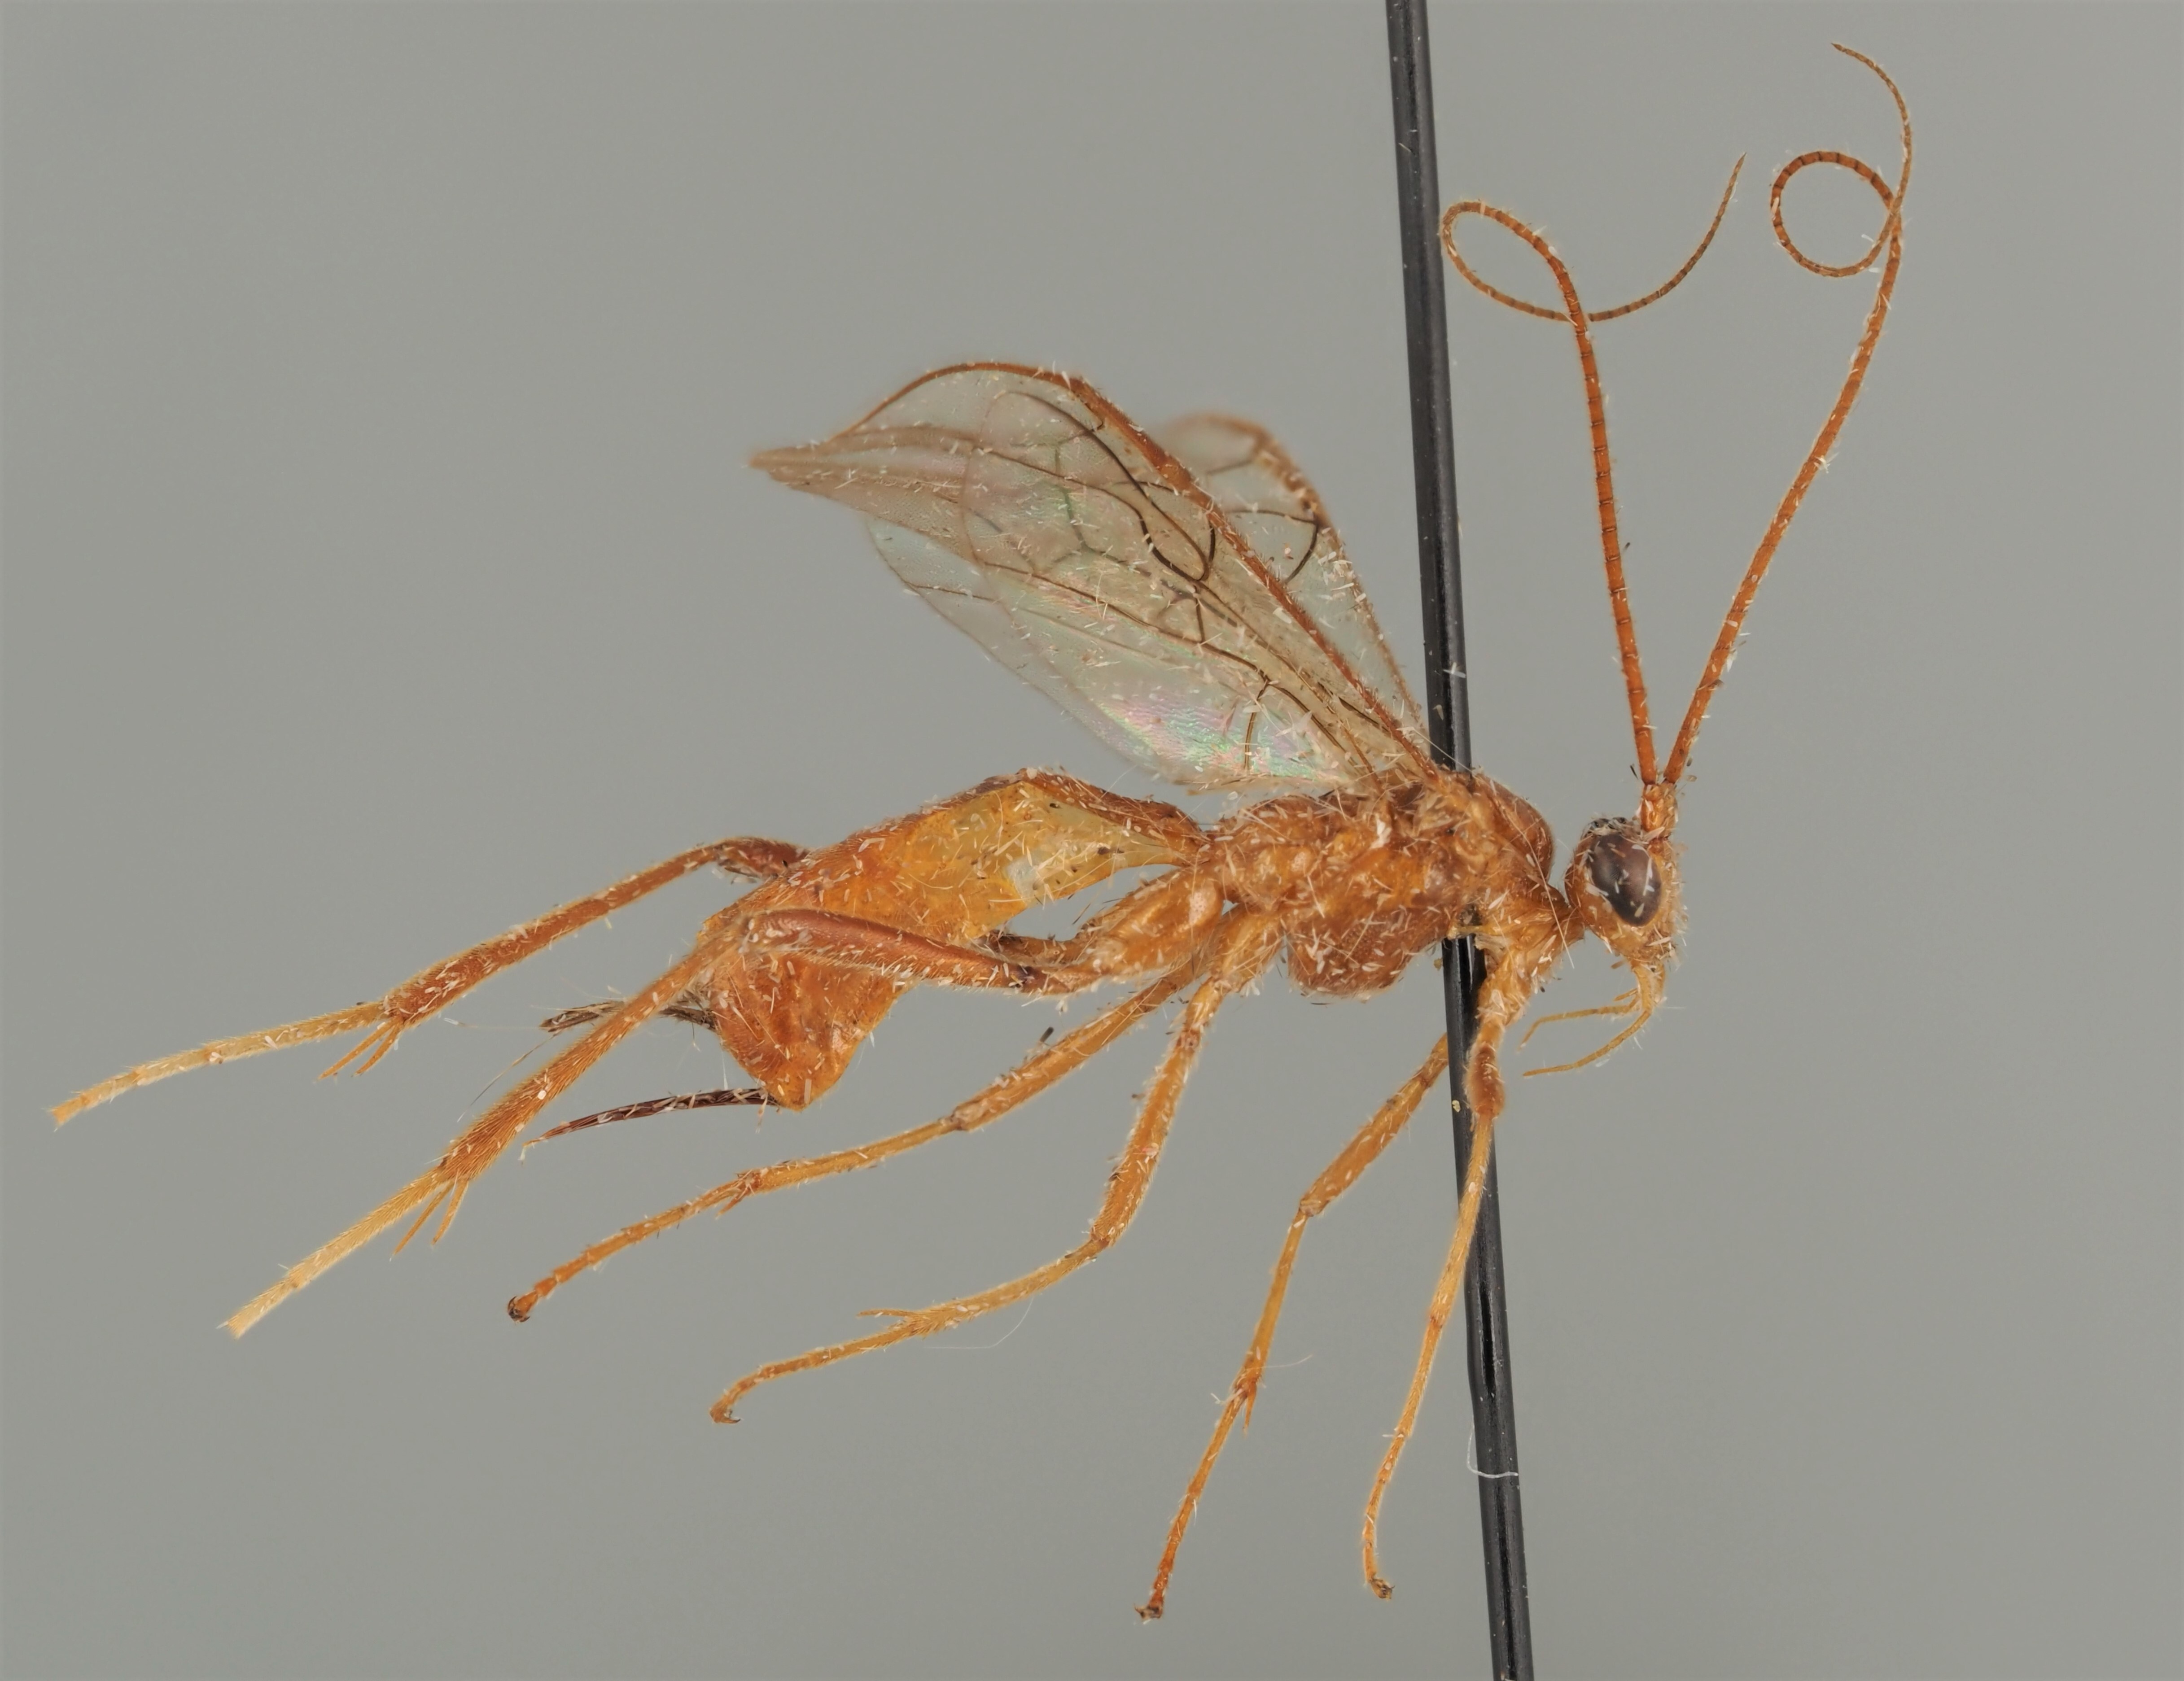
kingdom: Animalia
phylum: Arthropoda
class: Insecta
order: Hymenoptera
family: Braconidae
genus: Homolobus
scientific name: Homolobus annulicornis
